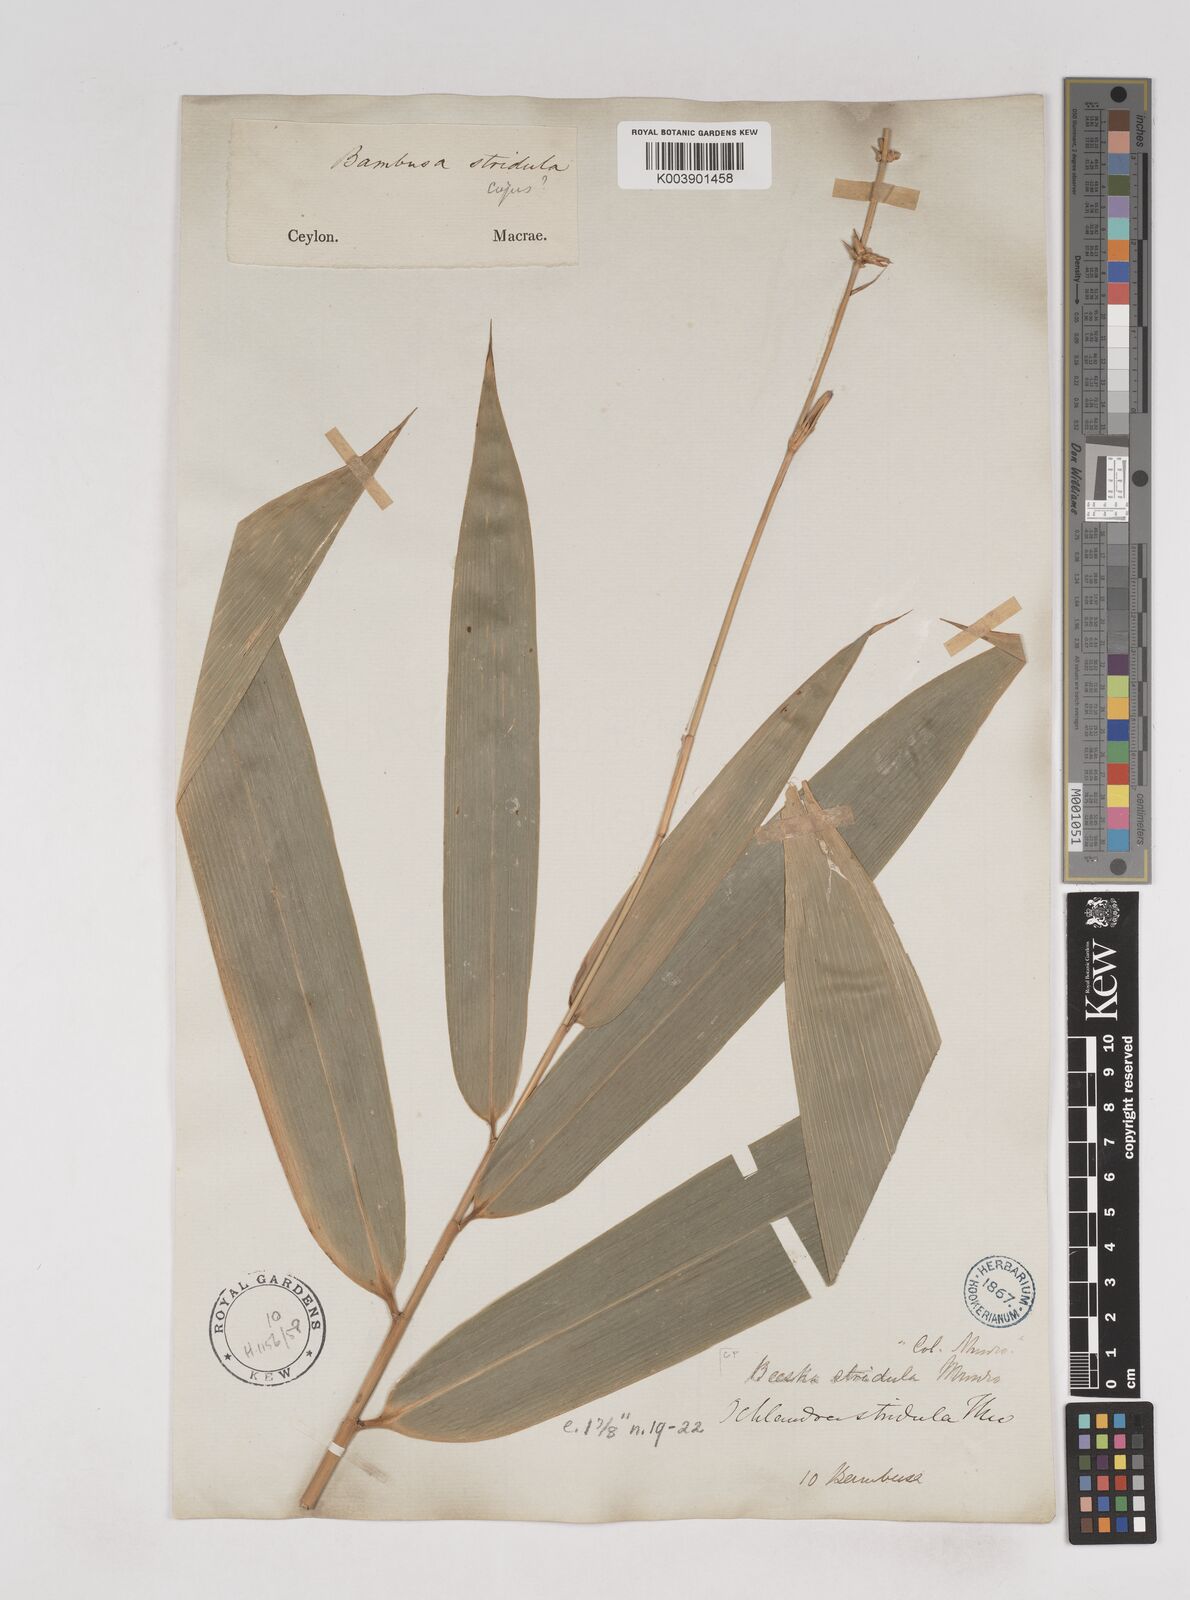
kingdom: Plantae
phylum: Tracheophyta
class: Liliopsida
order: Poales
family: Poaceae
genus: Ochlandra
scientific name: Ochlandra stridula
